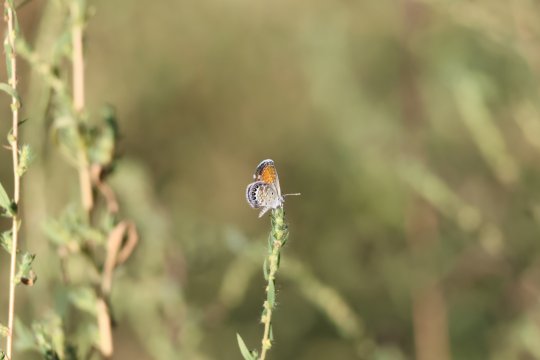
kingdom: Animalia
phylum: Arthropoda
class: Insecta
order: Lepidoptera
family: Lycaenidae
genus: Brephidium
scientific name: Brephidium exilis
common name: Western Pygmy-Blue
